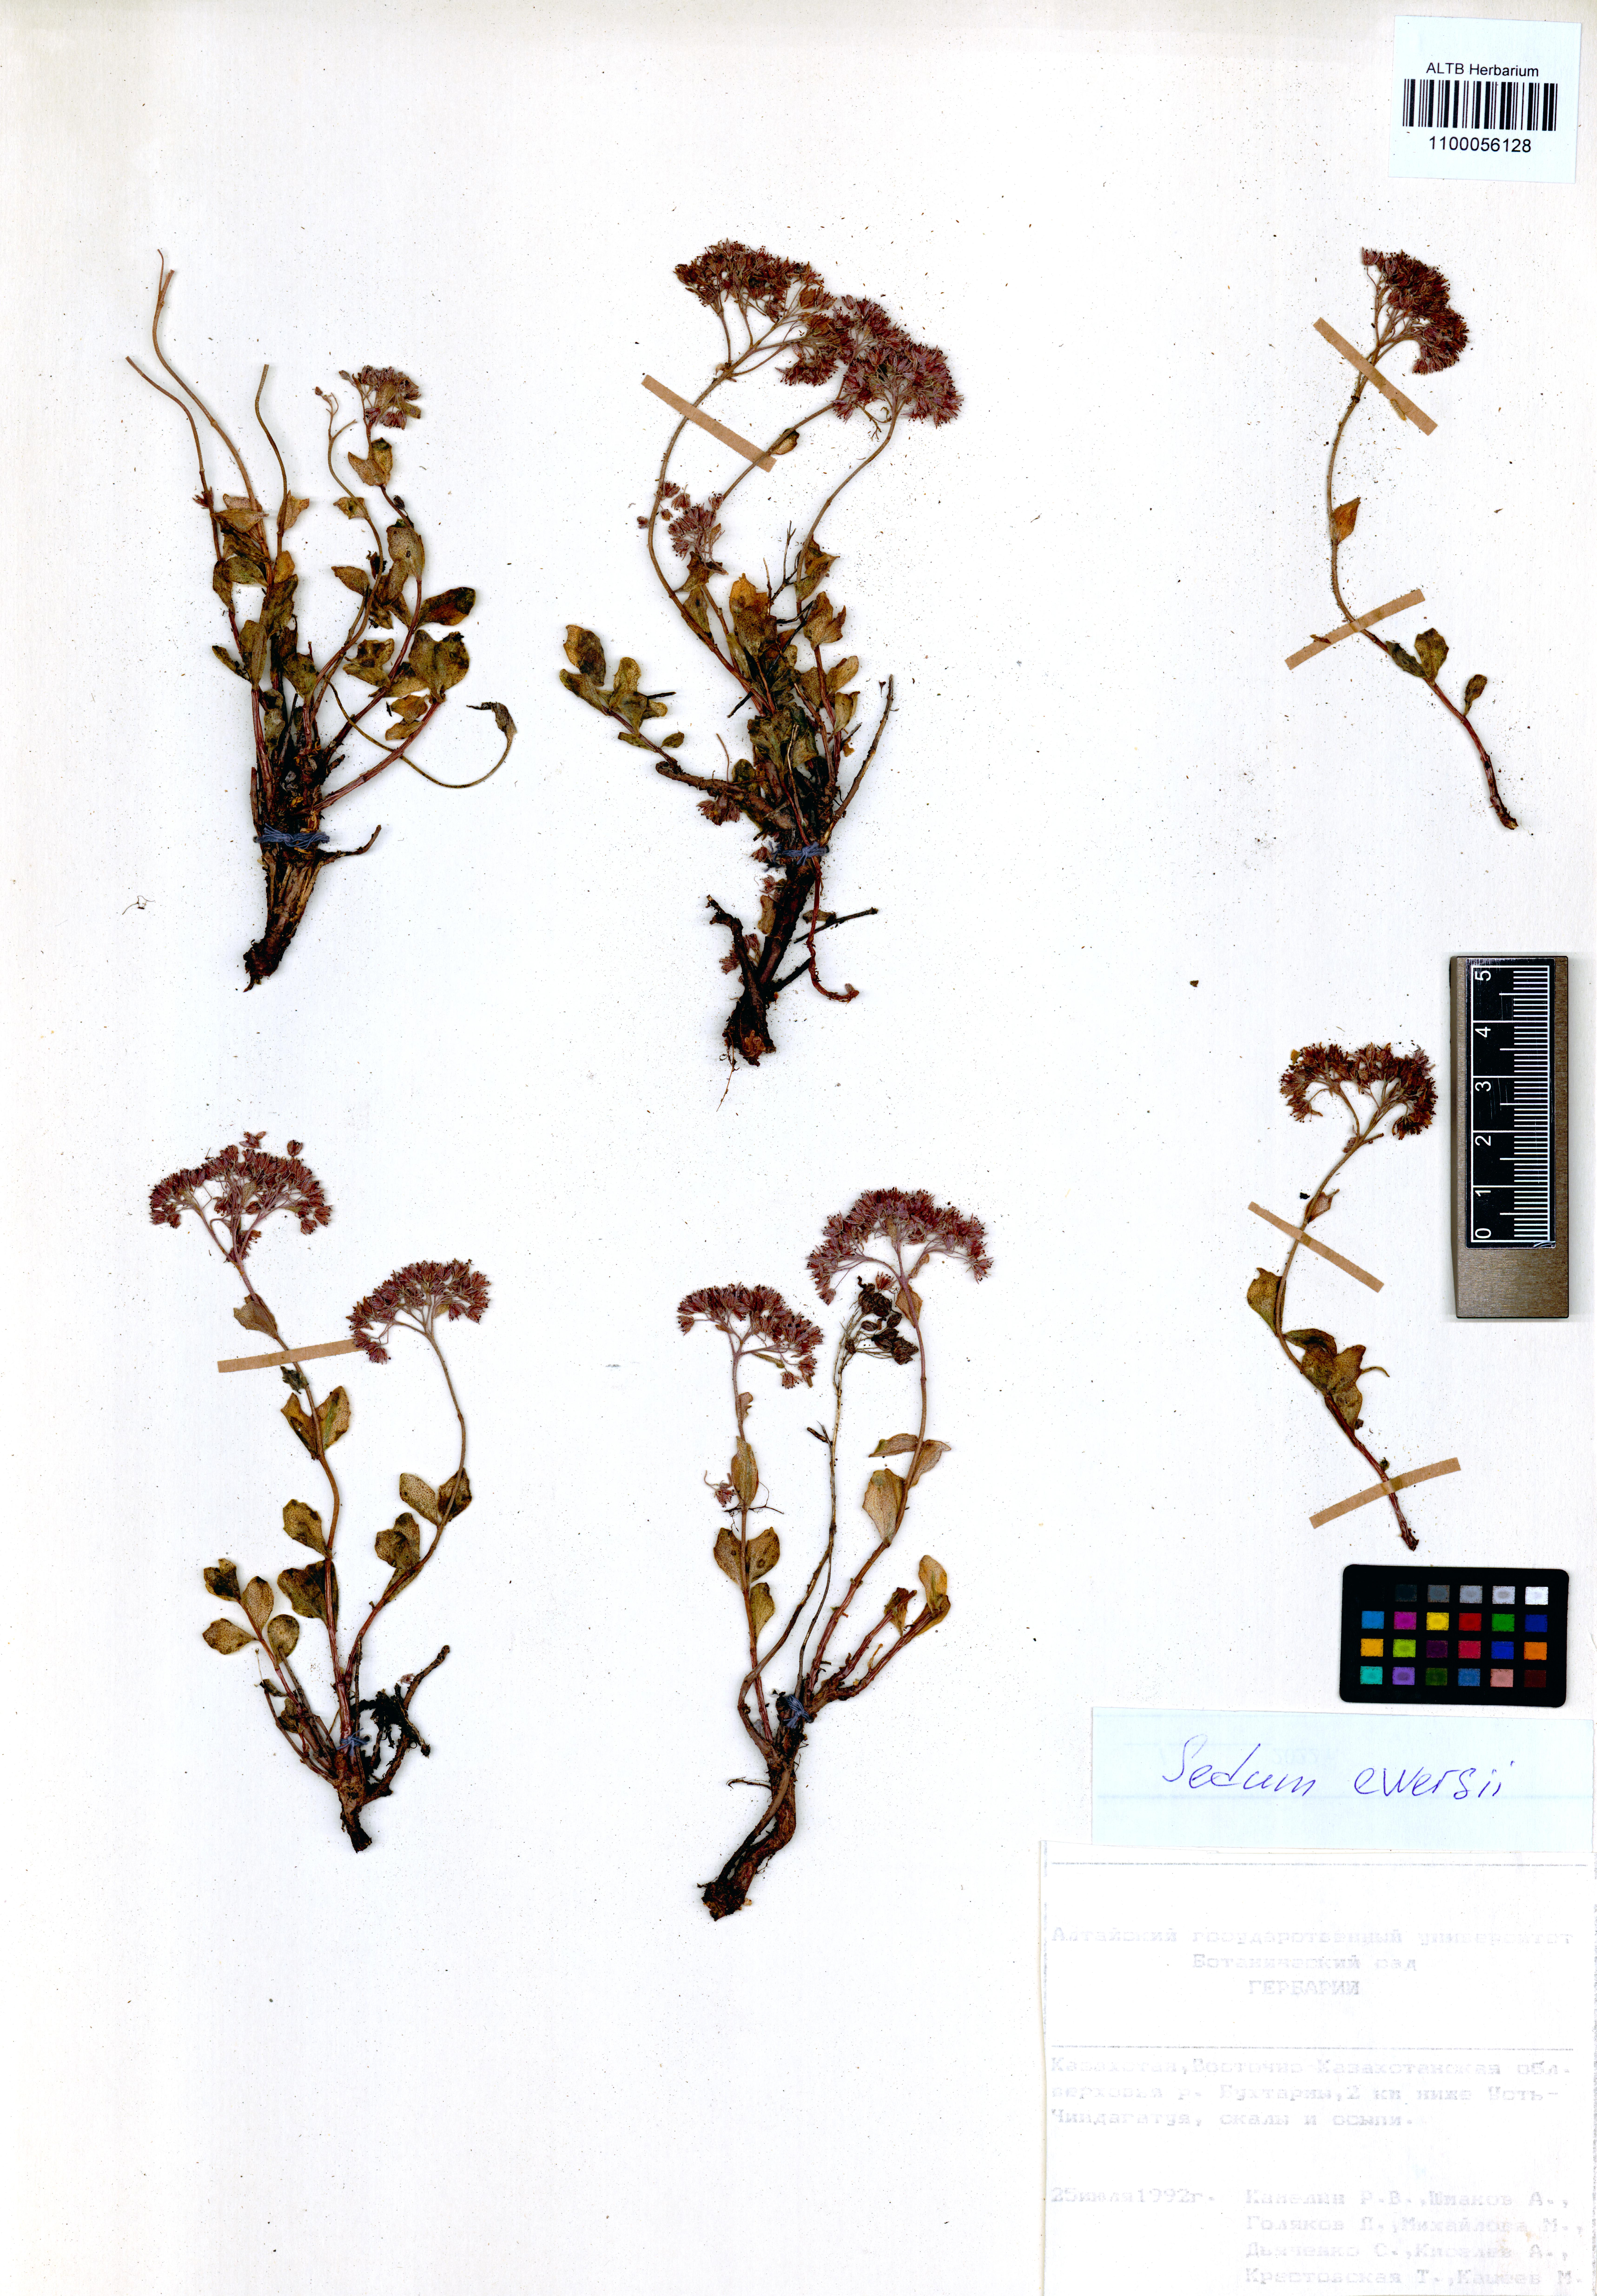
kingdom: Plantae
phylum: Tracheophyta
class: Magnoliopsida
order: Saxifragales
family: Crassulaceae
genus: Hylotelephium
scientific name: Hylotelephium ewersii
